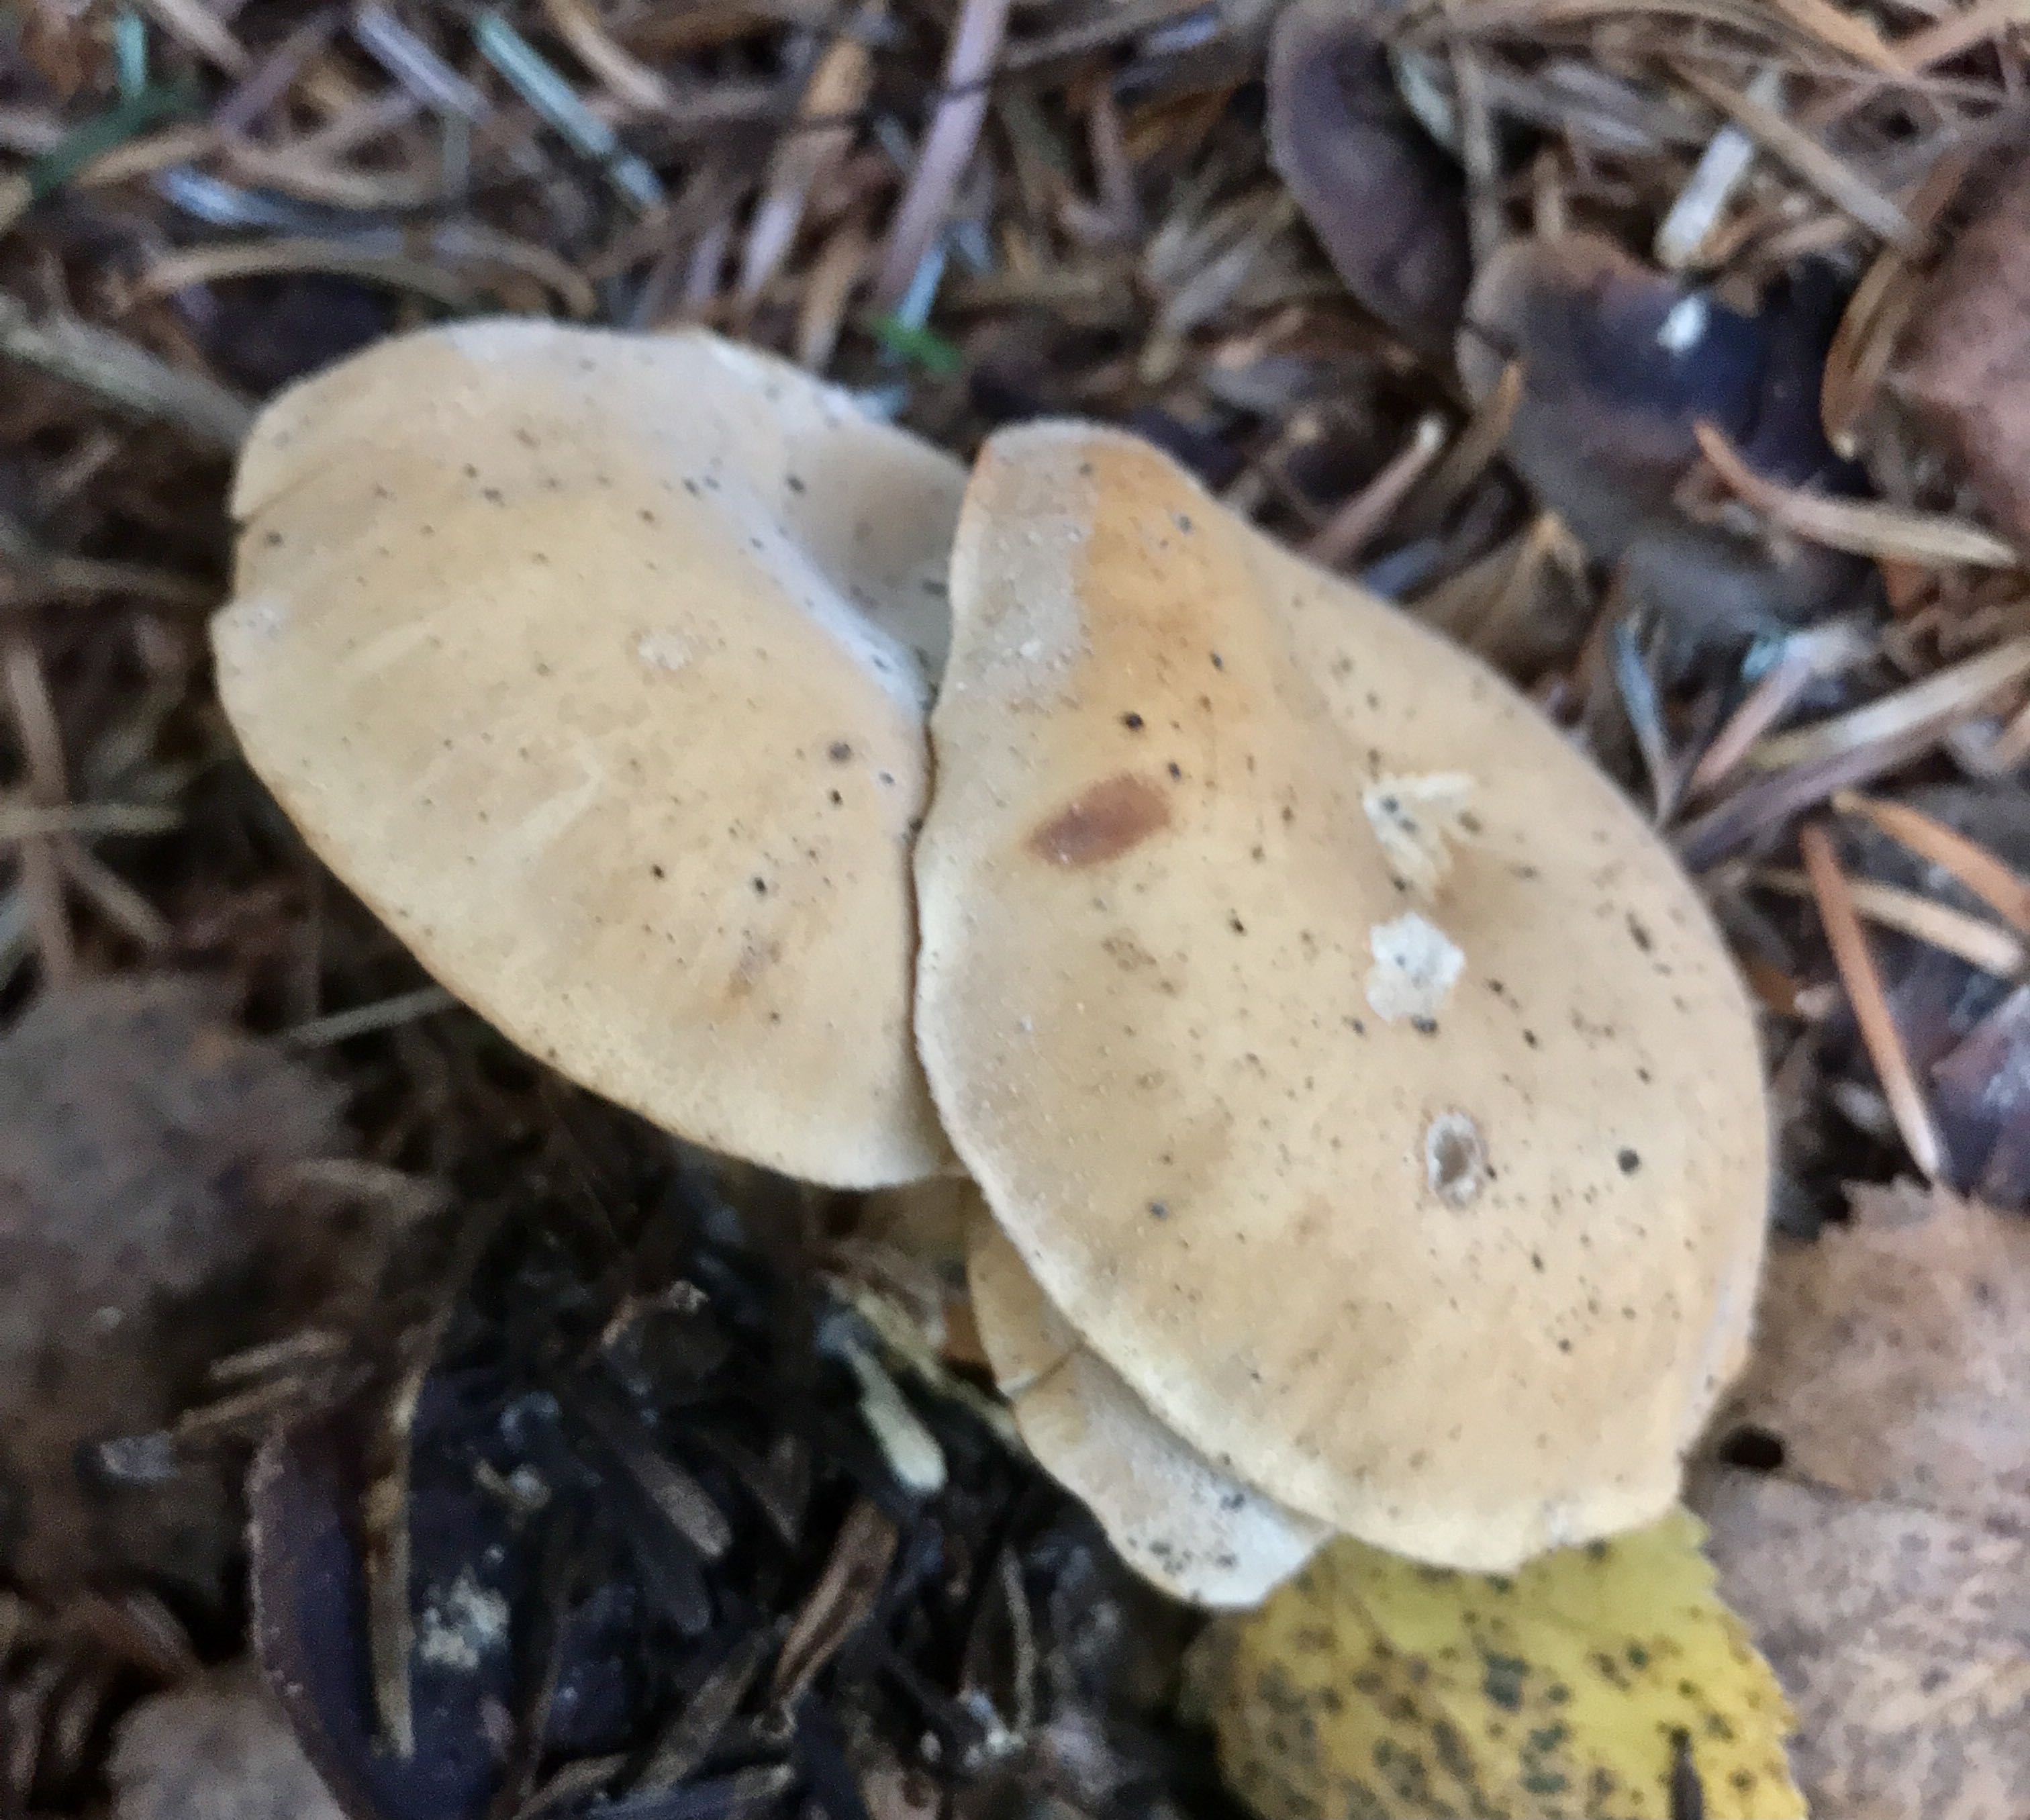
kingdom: Fungi
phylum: Basidiomycota
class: Agaricomycetes
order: Agaricales
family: Tricholomataceae
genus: Paralepista
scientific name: Paralepista
